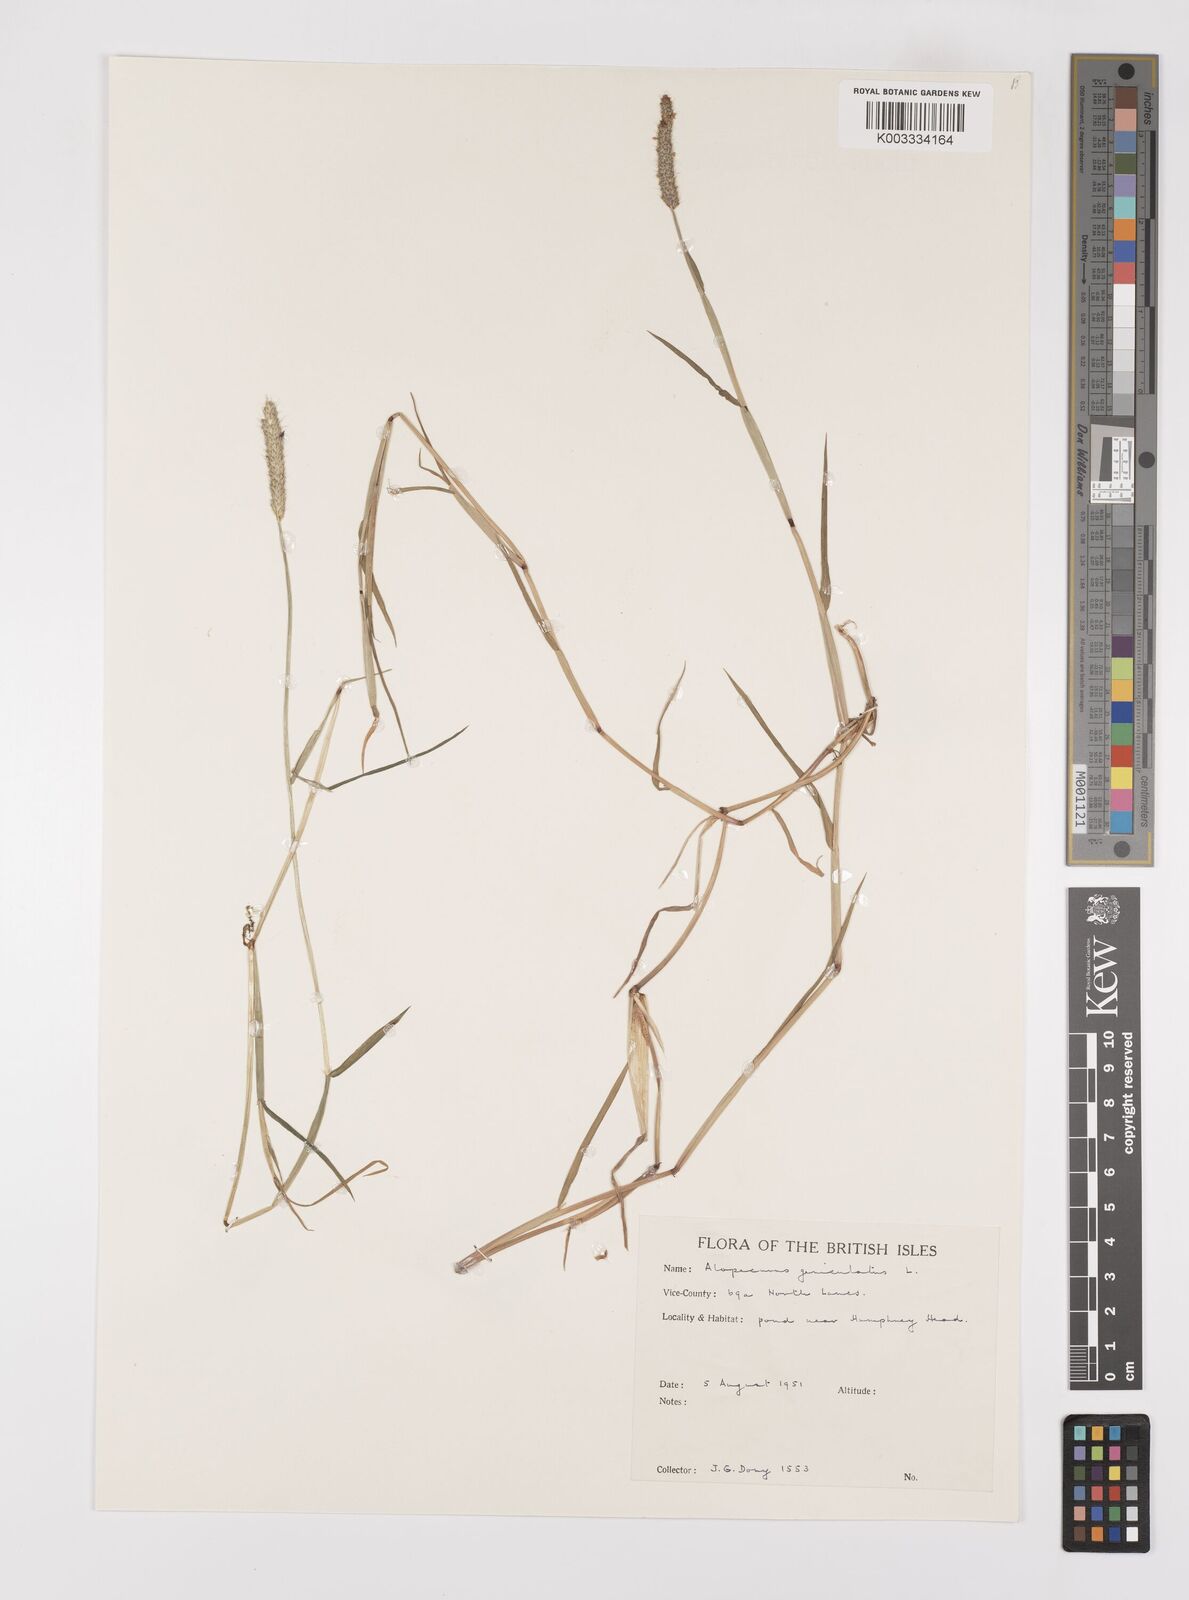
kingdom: Plantae
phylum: Tracheophyta
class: Liliopsida
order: Poales
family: Poaceae
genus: Alopecurus
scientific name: Alopecurus geniculatus
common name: Water foxtail
